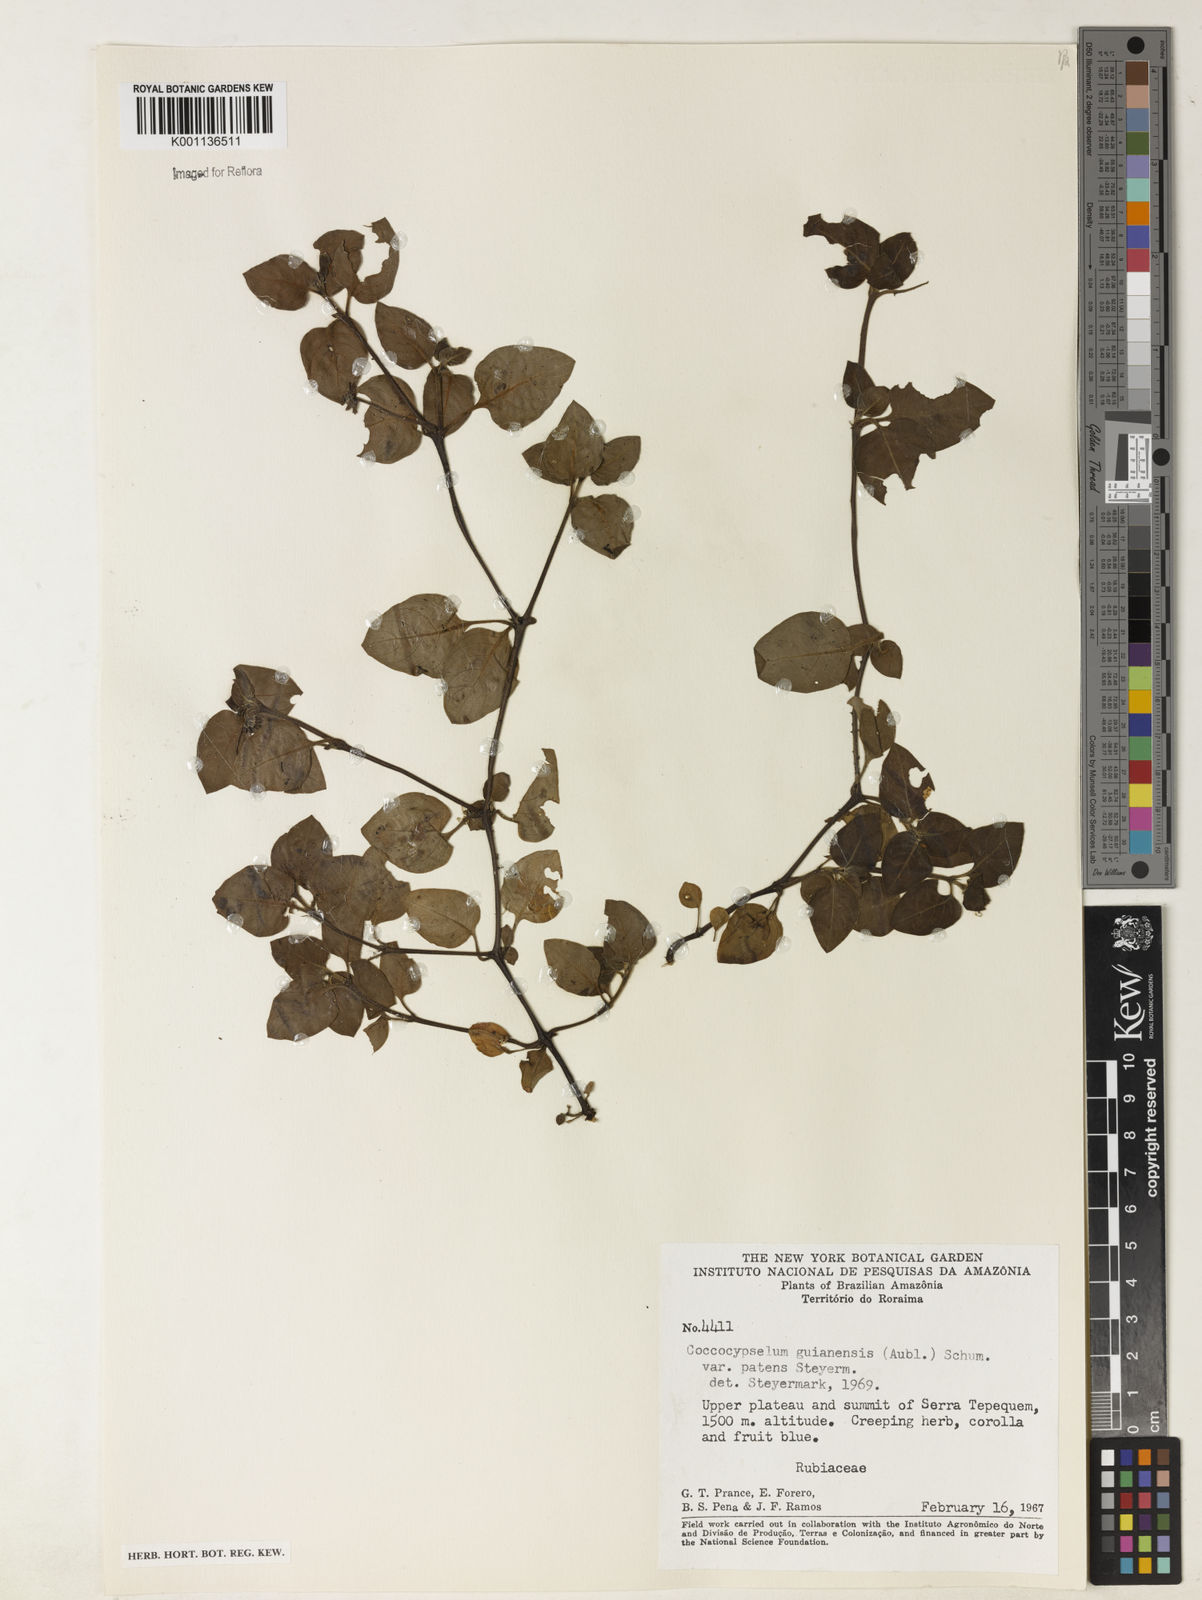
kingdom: Plantae
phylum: Tracheophyta
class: Magnoliopsida
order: Gentianales
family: Rubiaceae
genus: Coccocypselum
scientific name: Coccocypselum guianense
